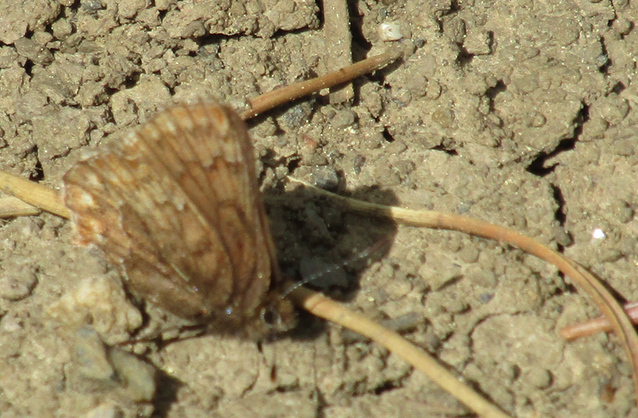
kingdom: Animalia
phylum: Arthropoda
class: Insecta
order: Lepidoptera
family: Lycaenidae
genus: Incisalia
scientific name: Incisalia eryphon
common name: Western Pine Elfin
